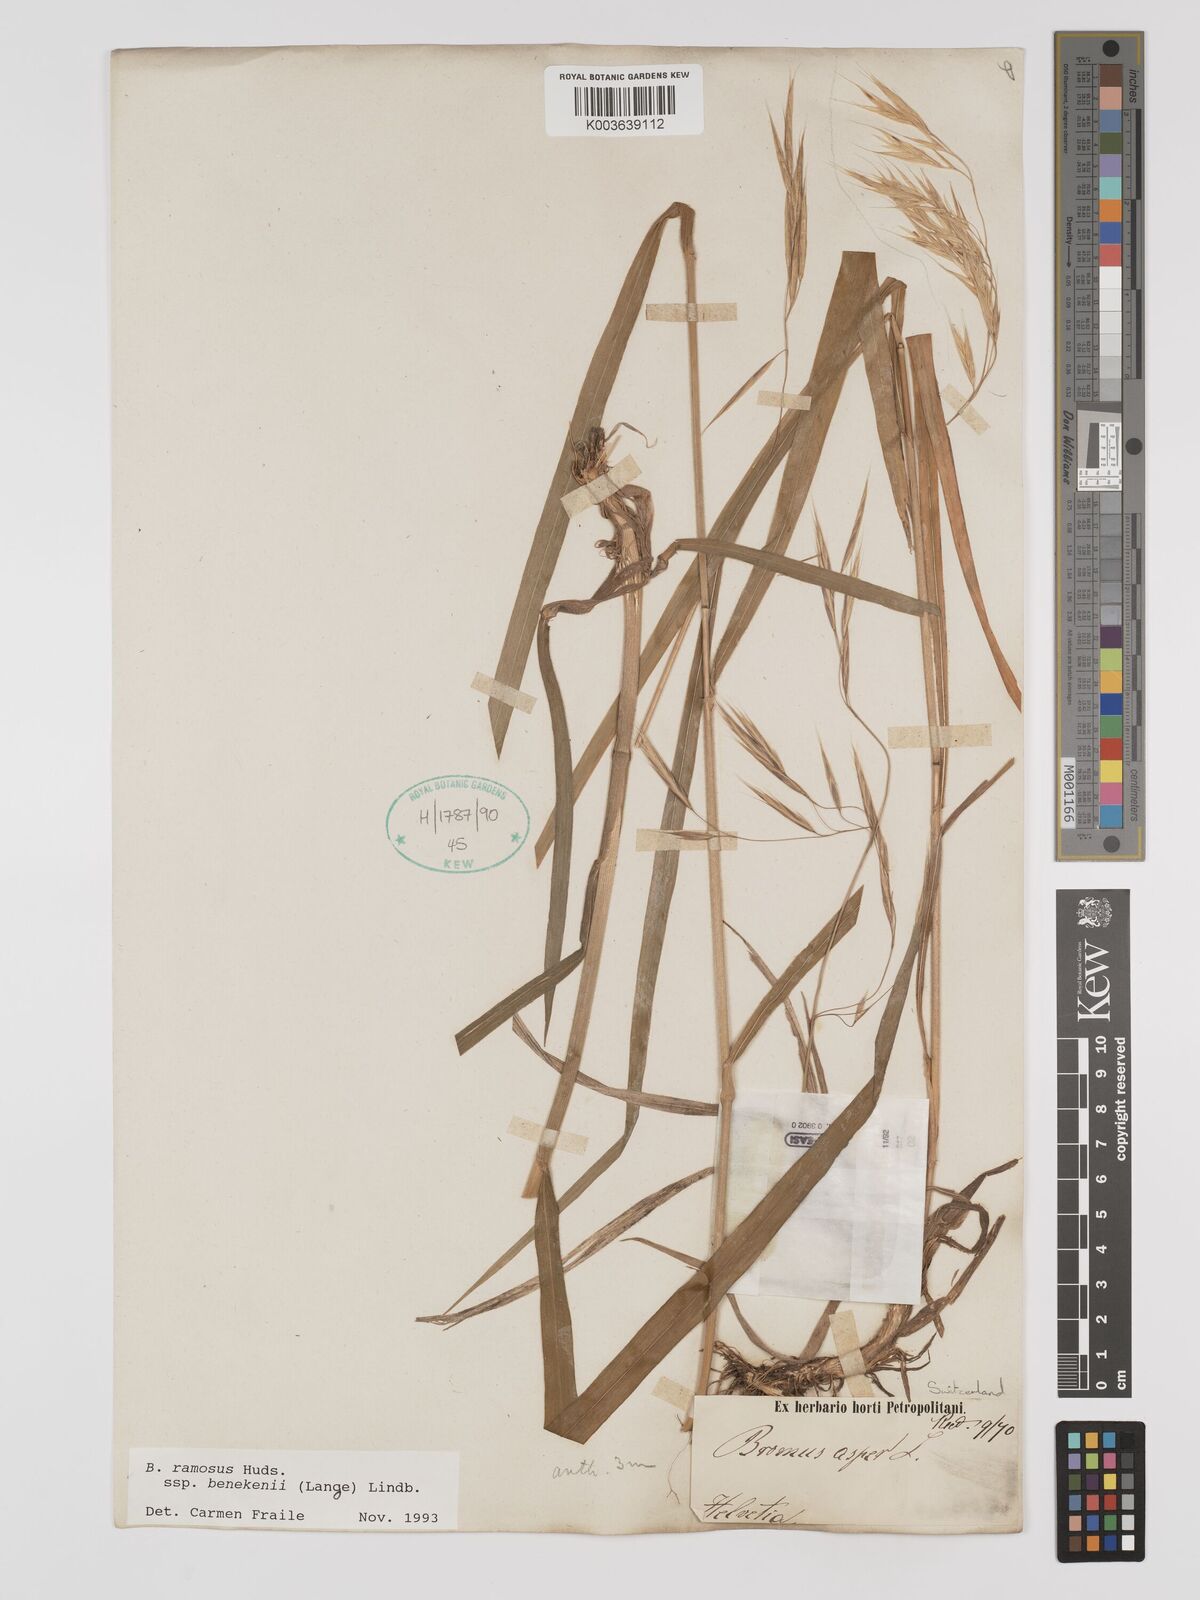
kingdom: Plantae
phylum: Tracheophyta
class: Liliopsida
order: Poales
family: Poaceae
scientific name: Poaceae
